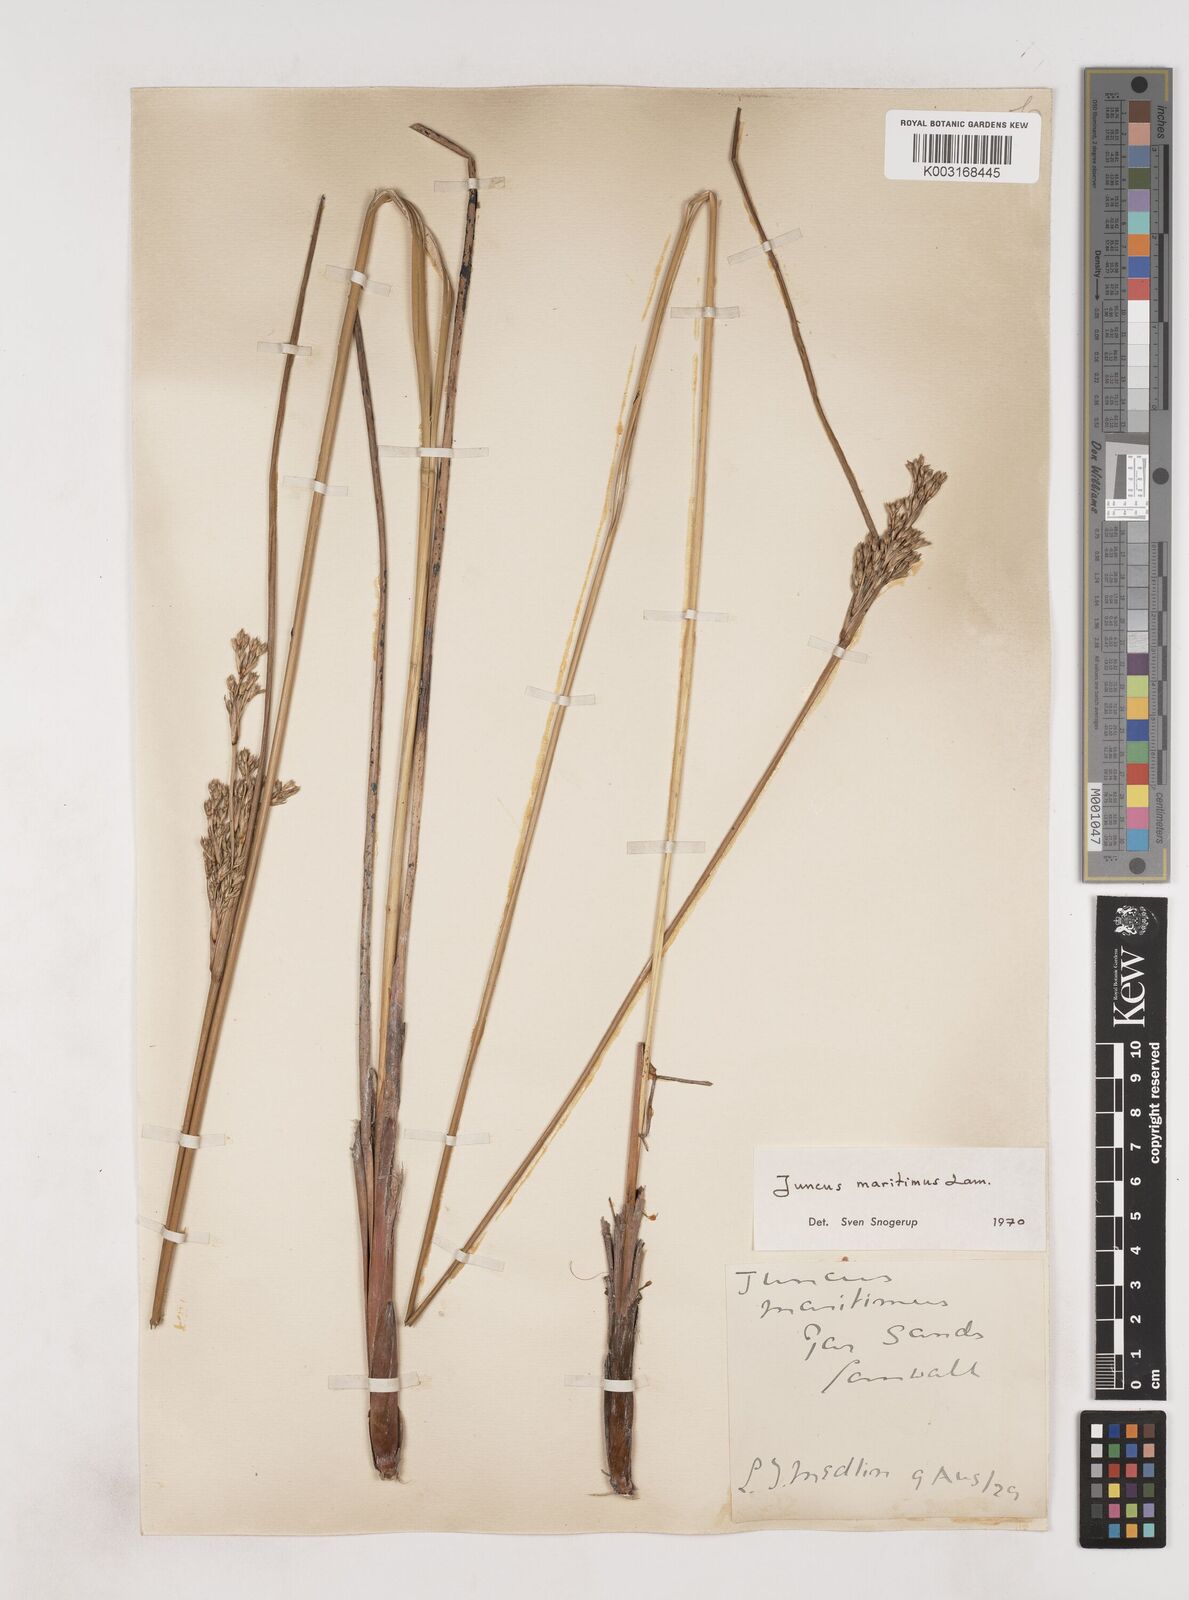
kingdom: Plantae
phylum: Tracheophyta
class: Liliopsida
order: Poales
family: Juncaceae
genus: Juncus
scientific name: Juncus maritimus
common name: Sea rush
